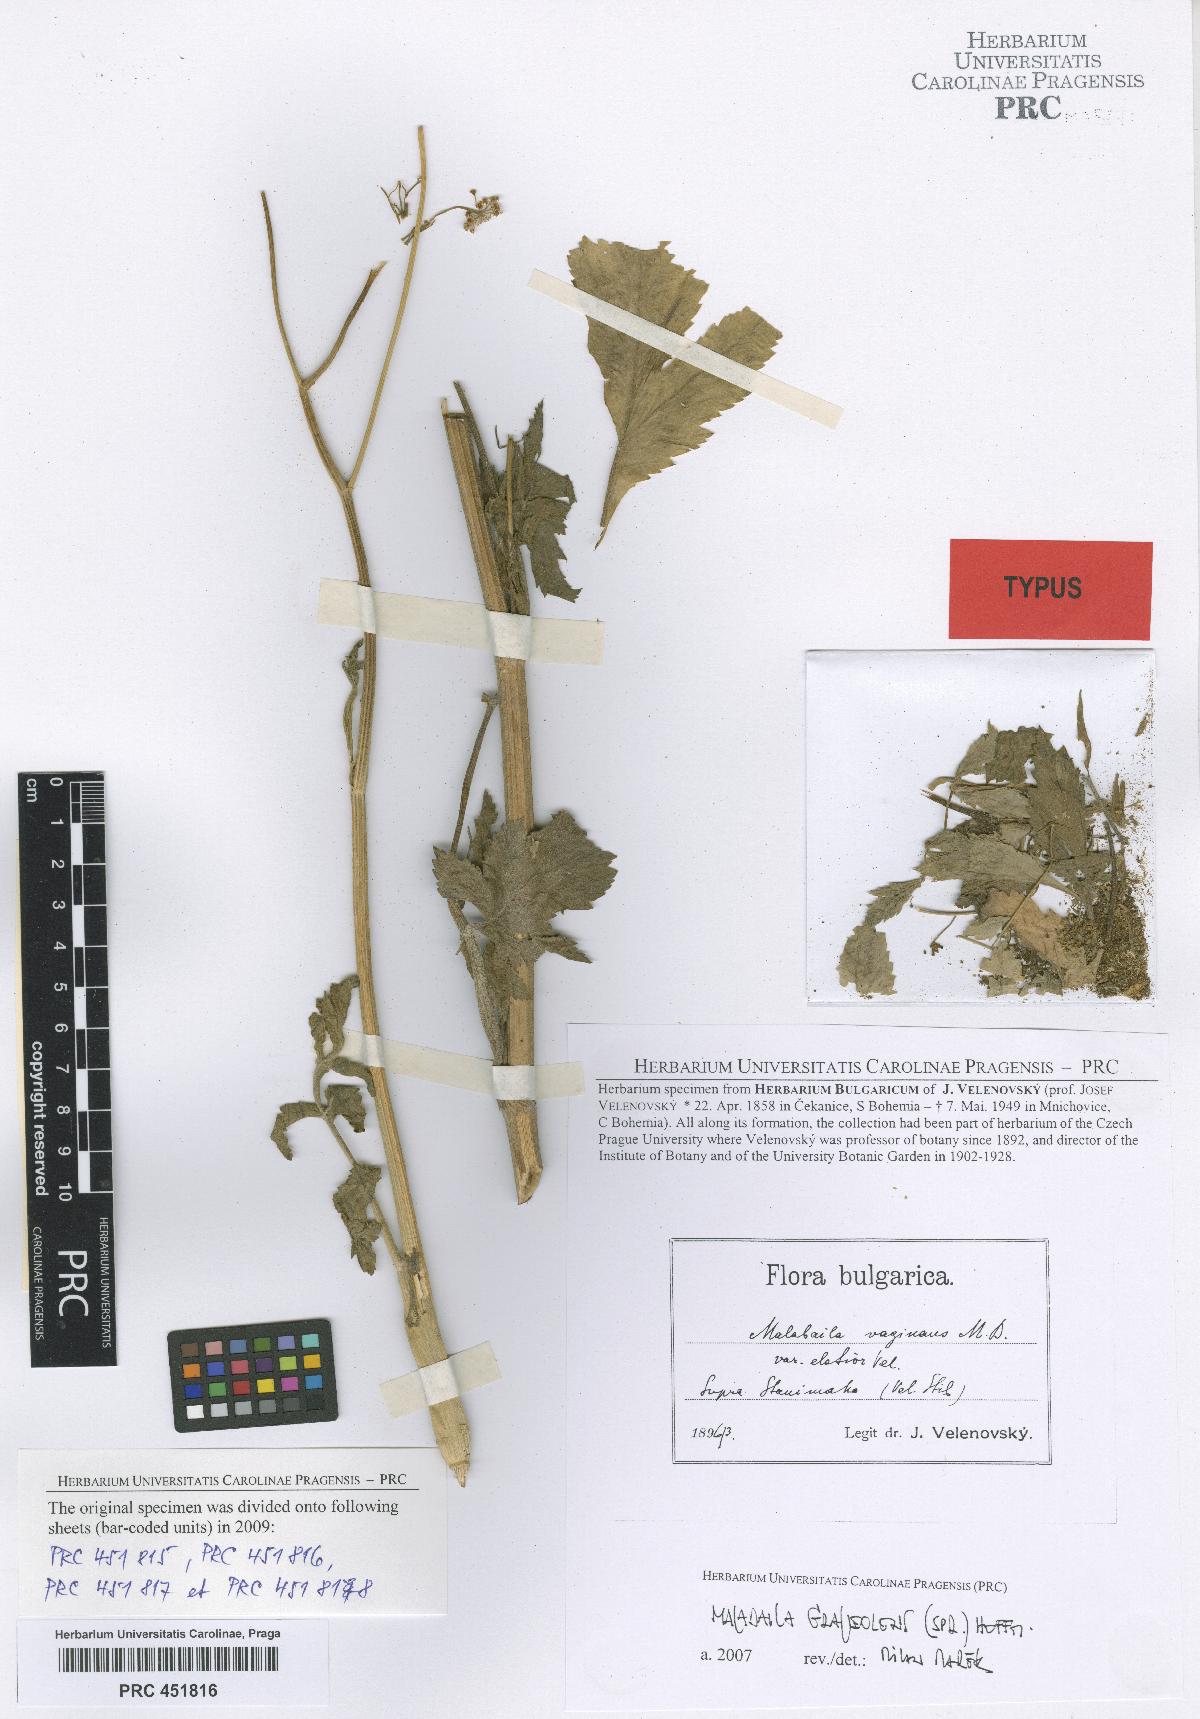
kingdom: Plantae
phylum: Tracheophyta
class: Magnoliopsida
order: Apiales
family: Apiaceae
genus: Pastinaca
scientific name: Pastinaca clausii
